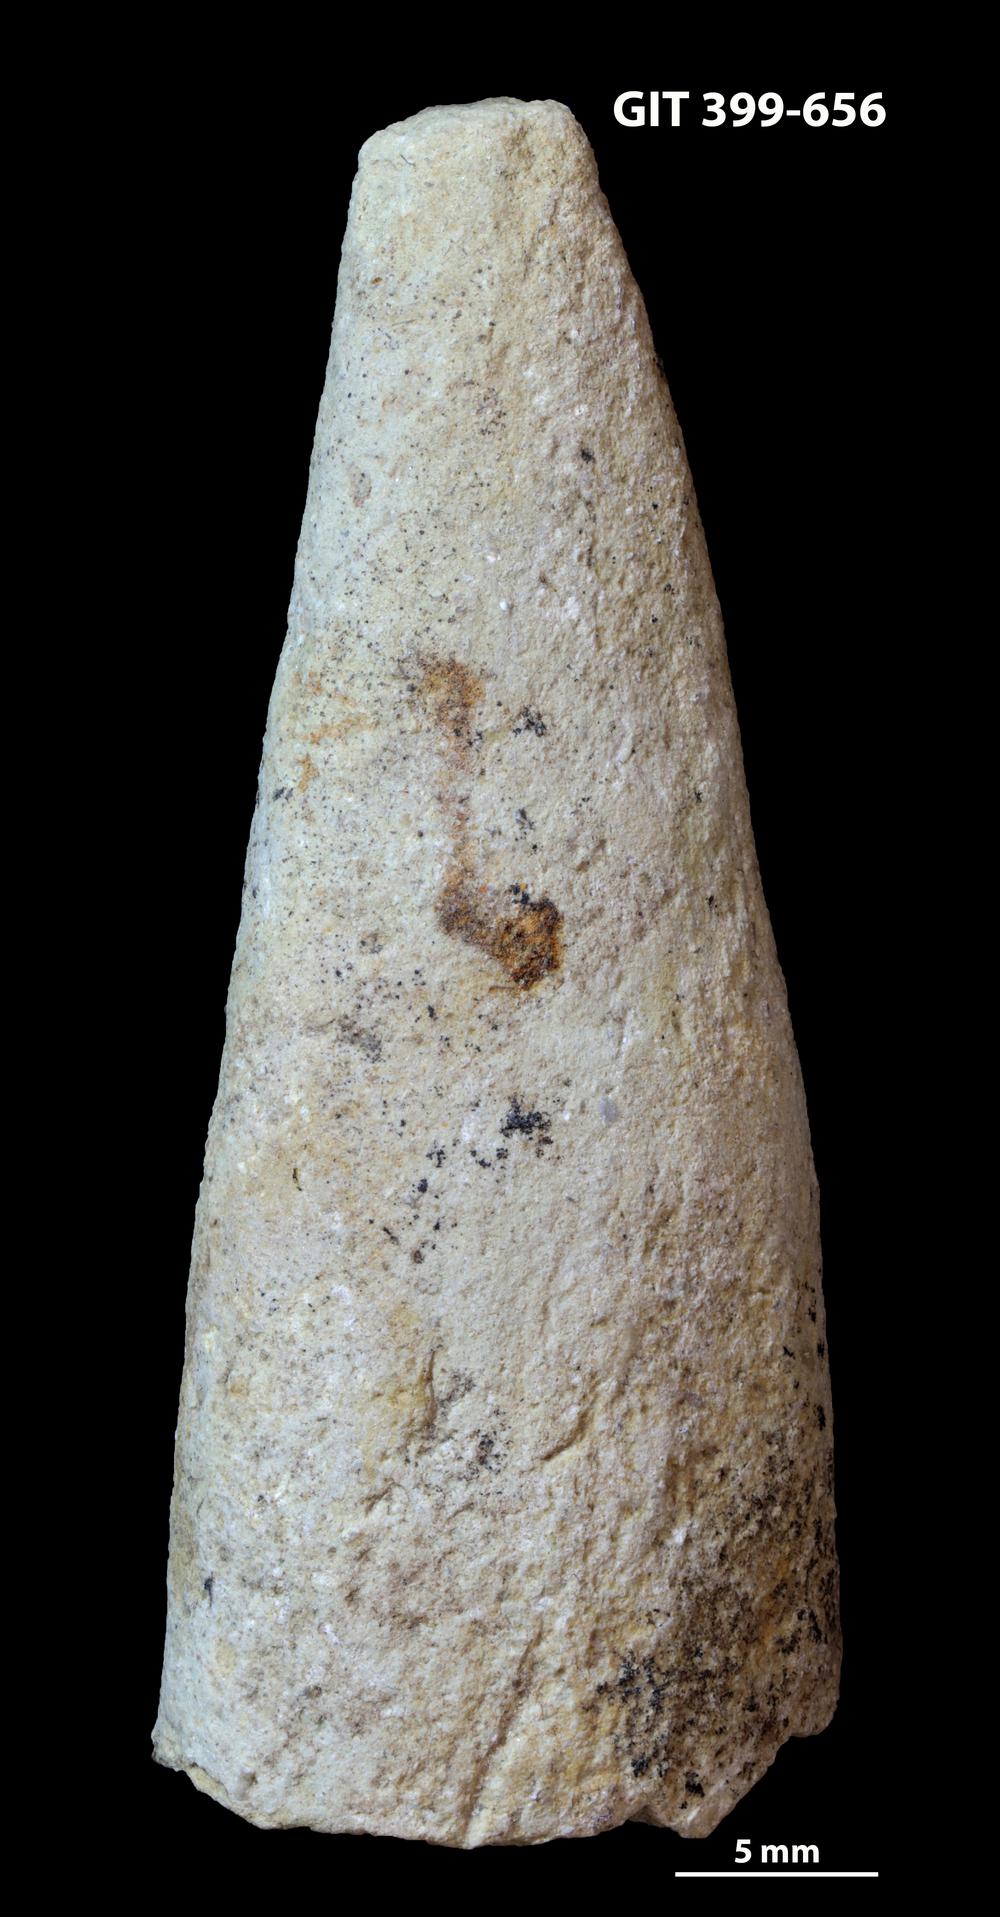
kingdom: Animalia
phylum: Annelida
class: Polychaeta
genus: Hyolithes
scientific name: Hyolithes
